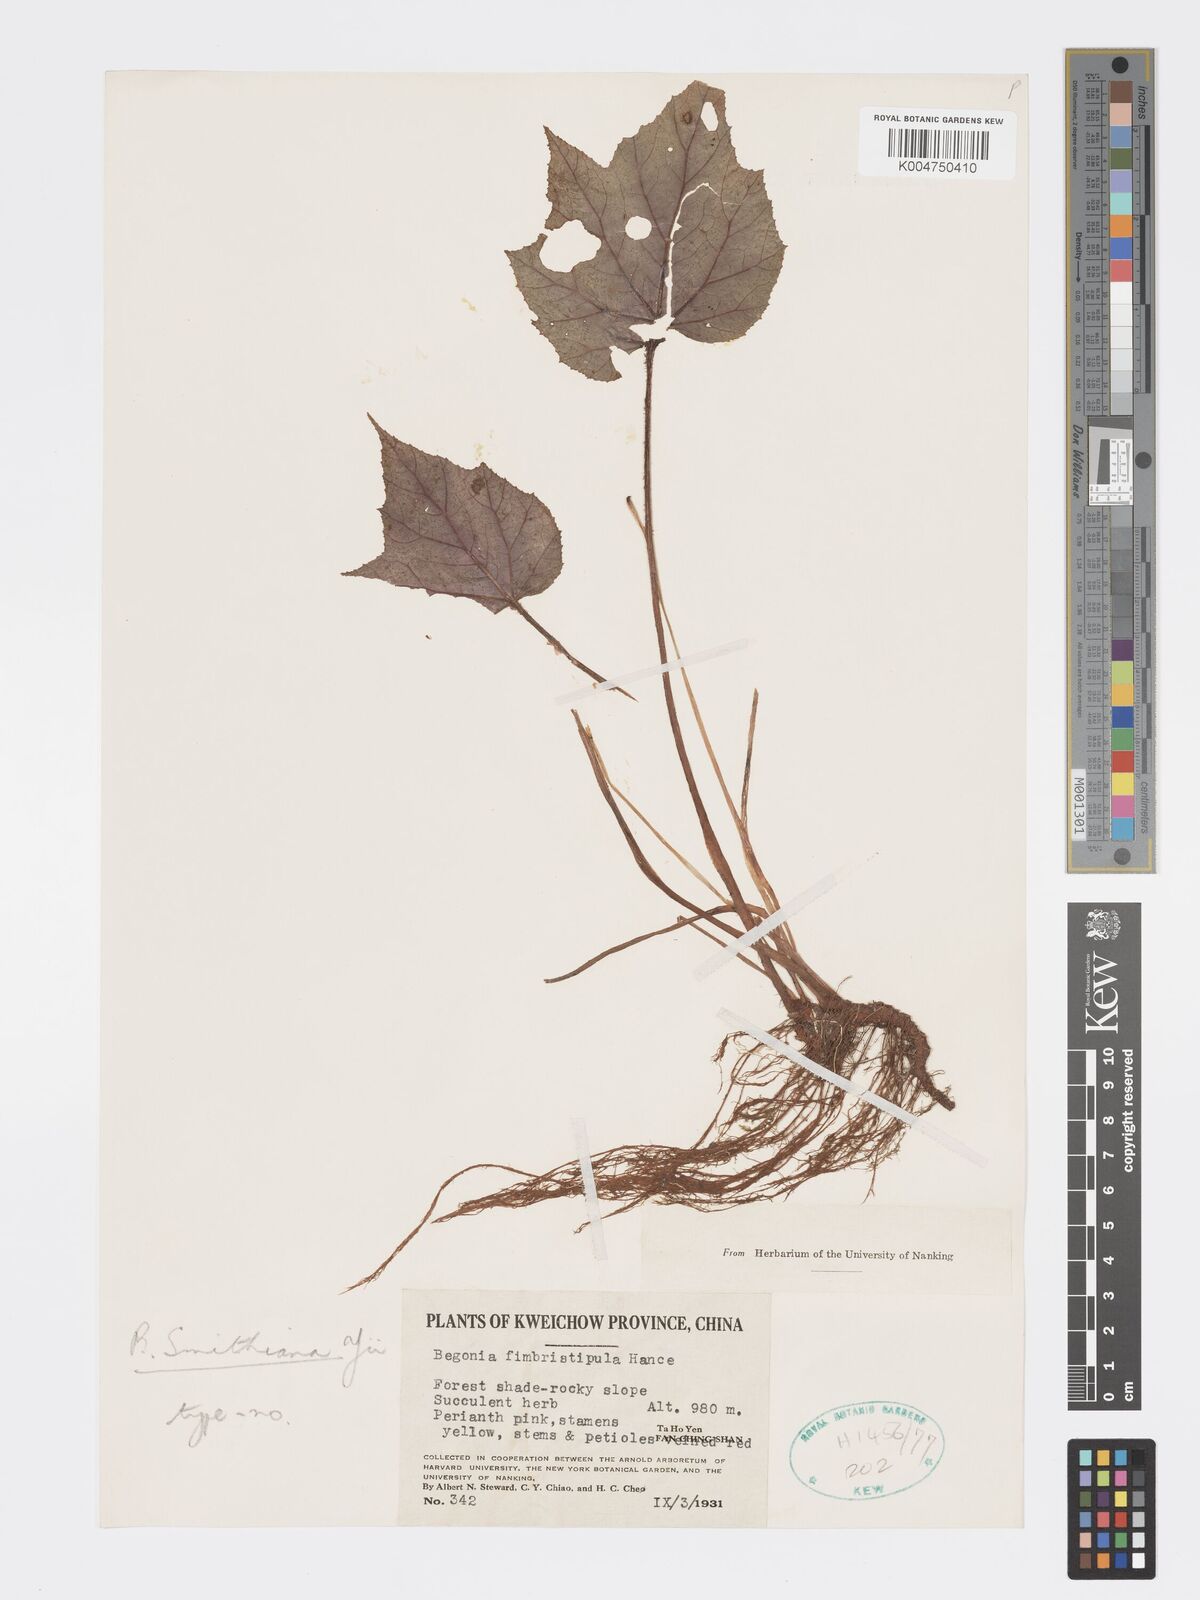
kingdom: Plantae
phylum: Tracheophyta
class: Magnoliopsida
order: Cucurbitales
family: Begoniaceae
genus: Begonia
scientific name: Begonia smithiana
